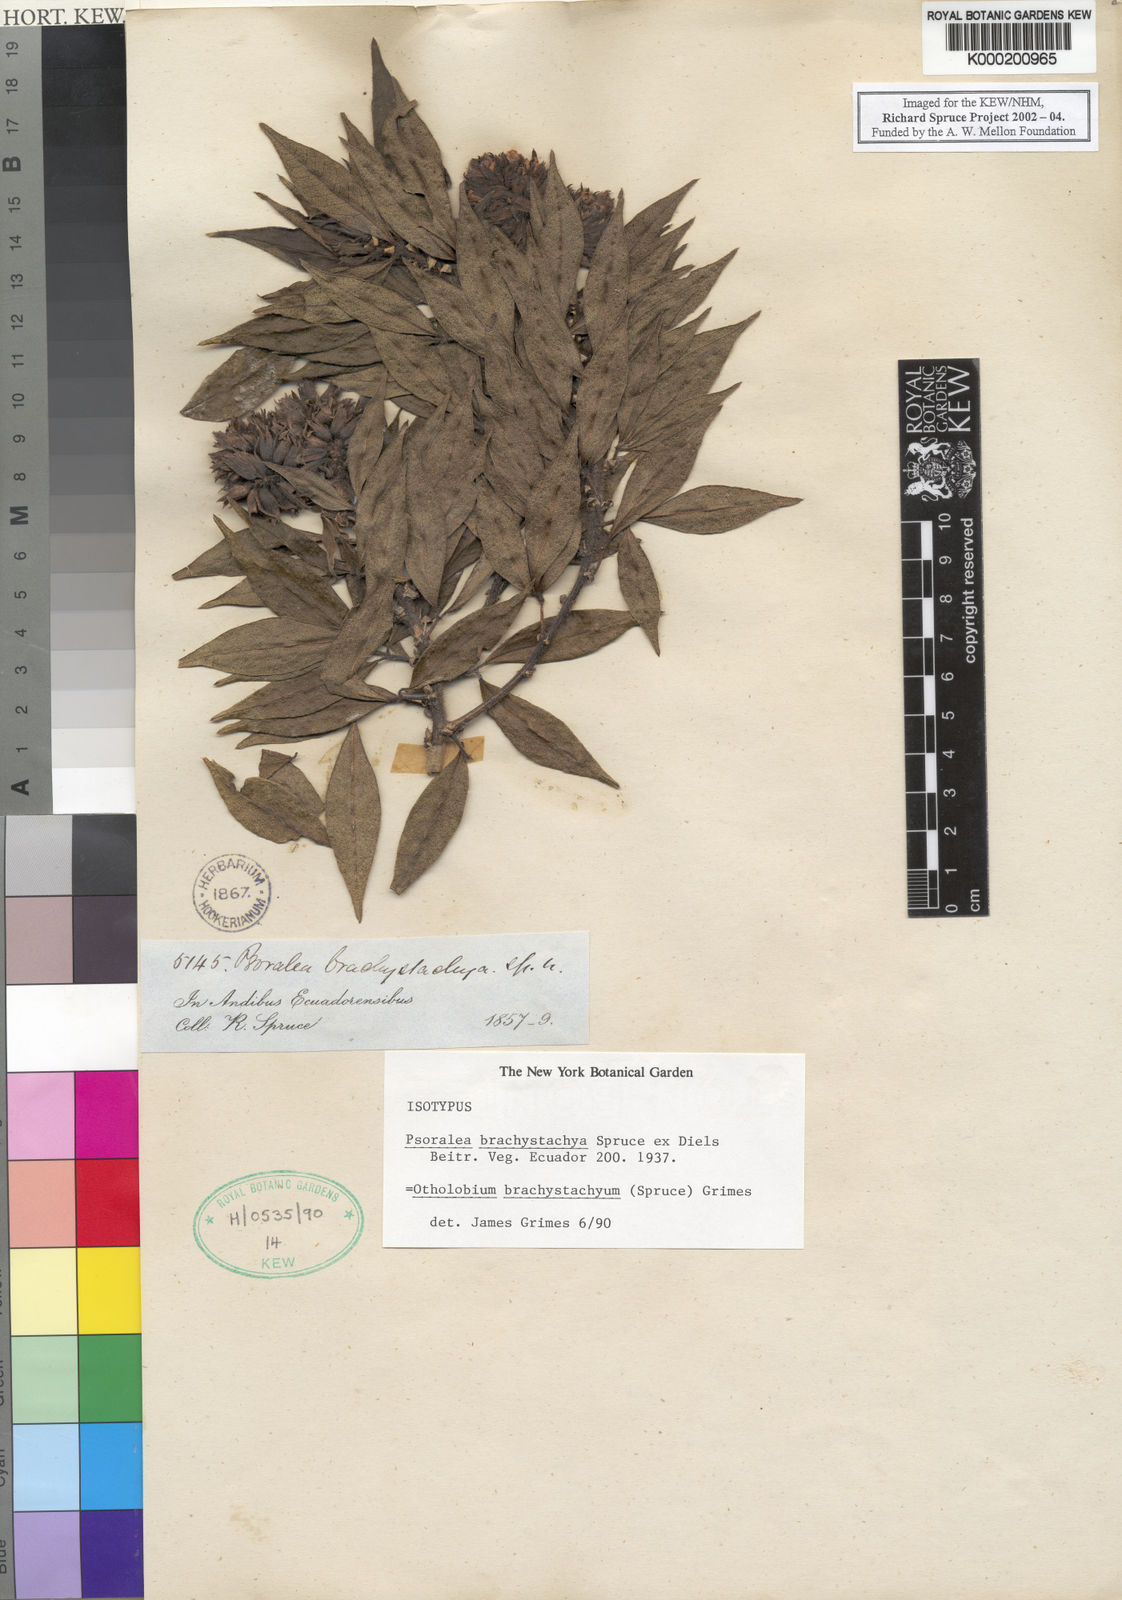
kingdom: Plantae
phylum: Tracheophyta
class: Magnoliopsida
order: Fabales
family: Fabaceae
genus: Psoralea
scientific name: Psoralea Otholobium brachystachyum
